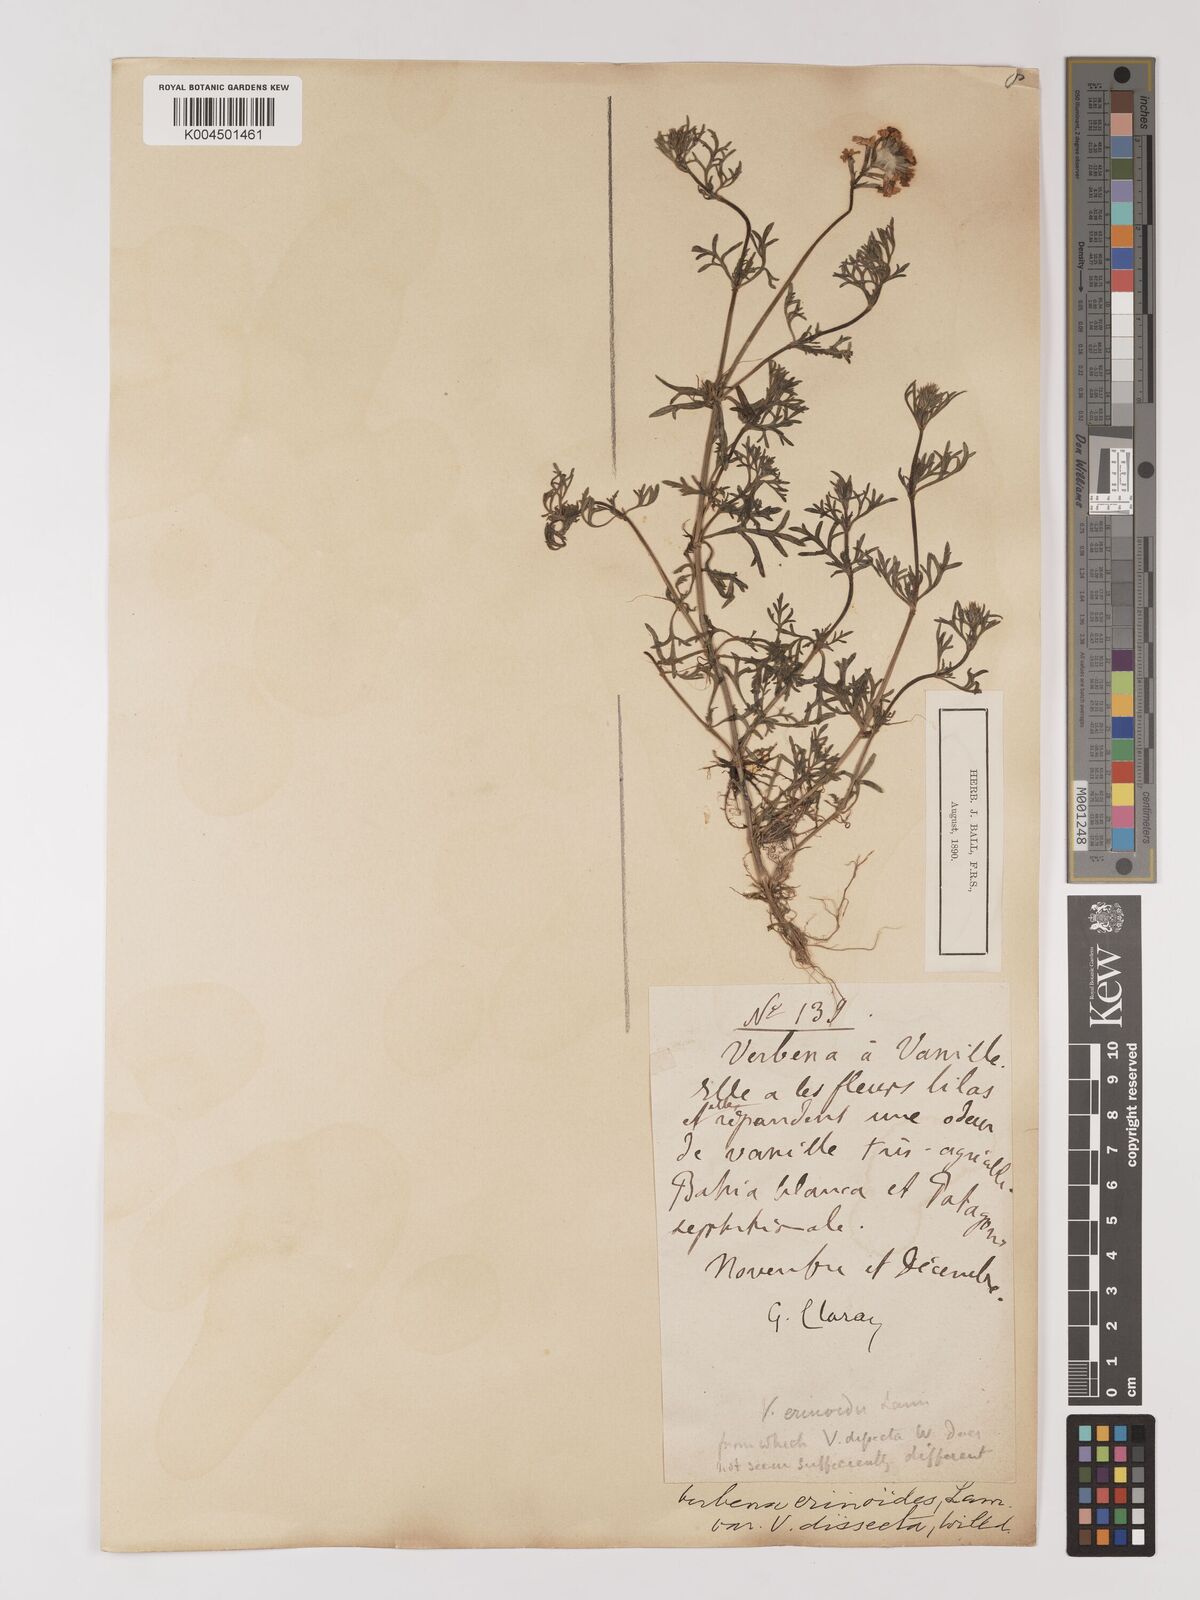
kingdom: Plantae
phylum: Tracheophyta
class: Magnoliopsida
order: Lamiales
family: Verbenaceae
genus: Verbena
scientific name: Verbena tenera
